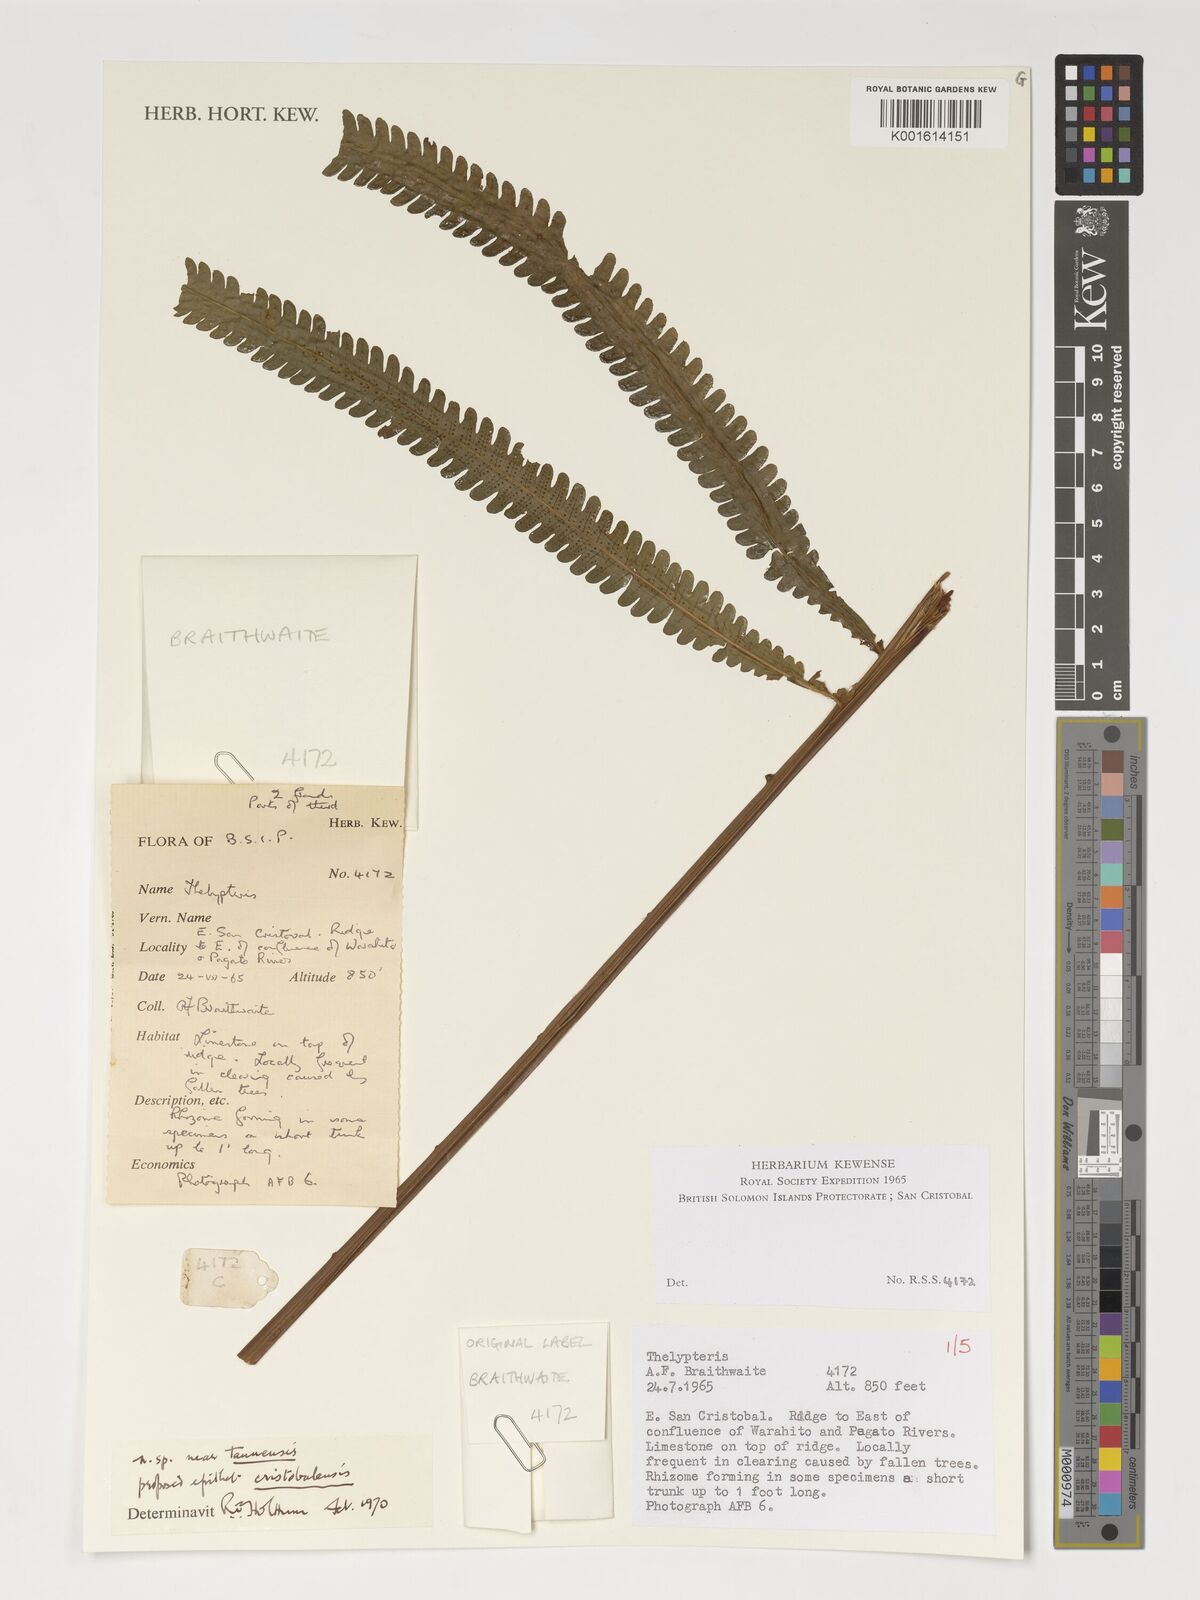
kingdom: Plantae
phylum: Tracheophyta
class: Polypodiopsida
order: Polypodiales
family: Thelypteridaceae
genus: Thelypteris
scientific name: Thelypteris
